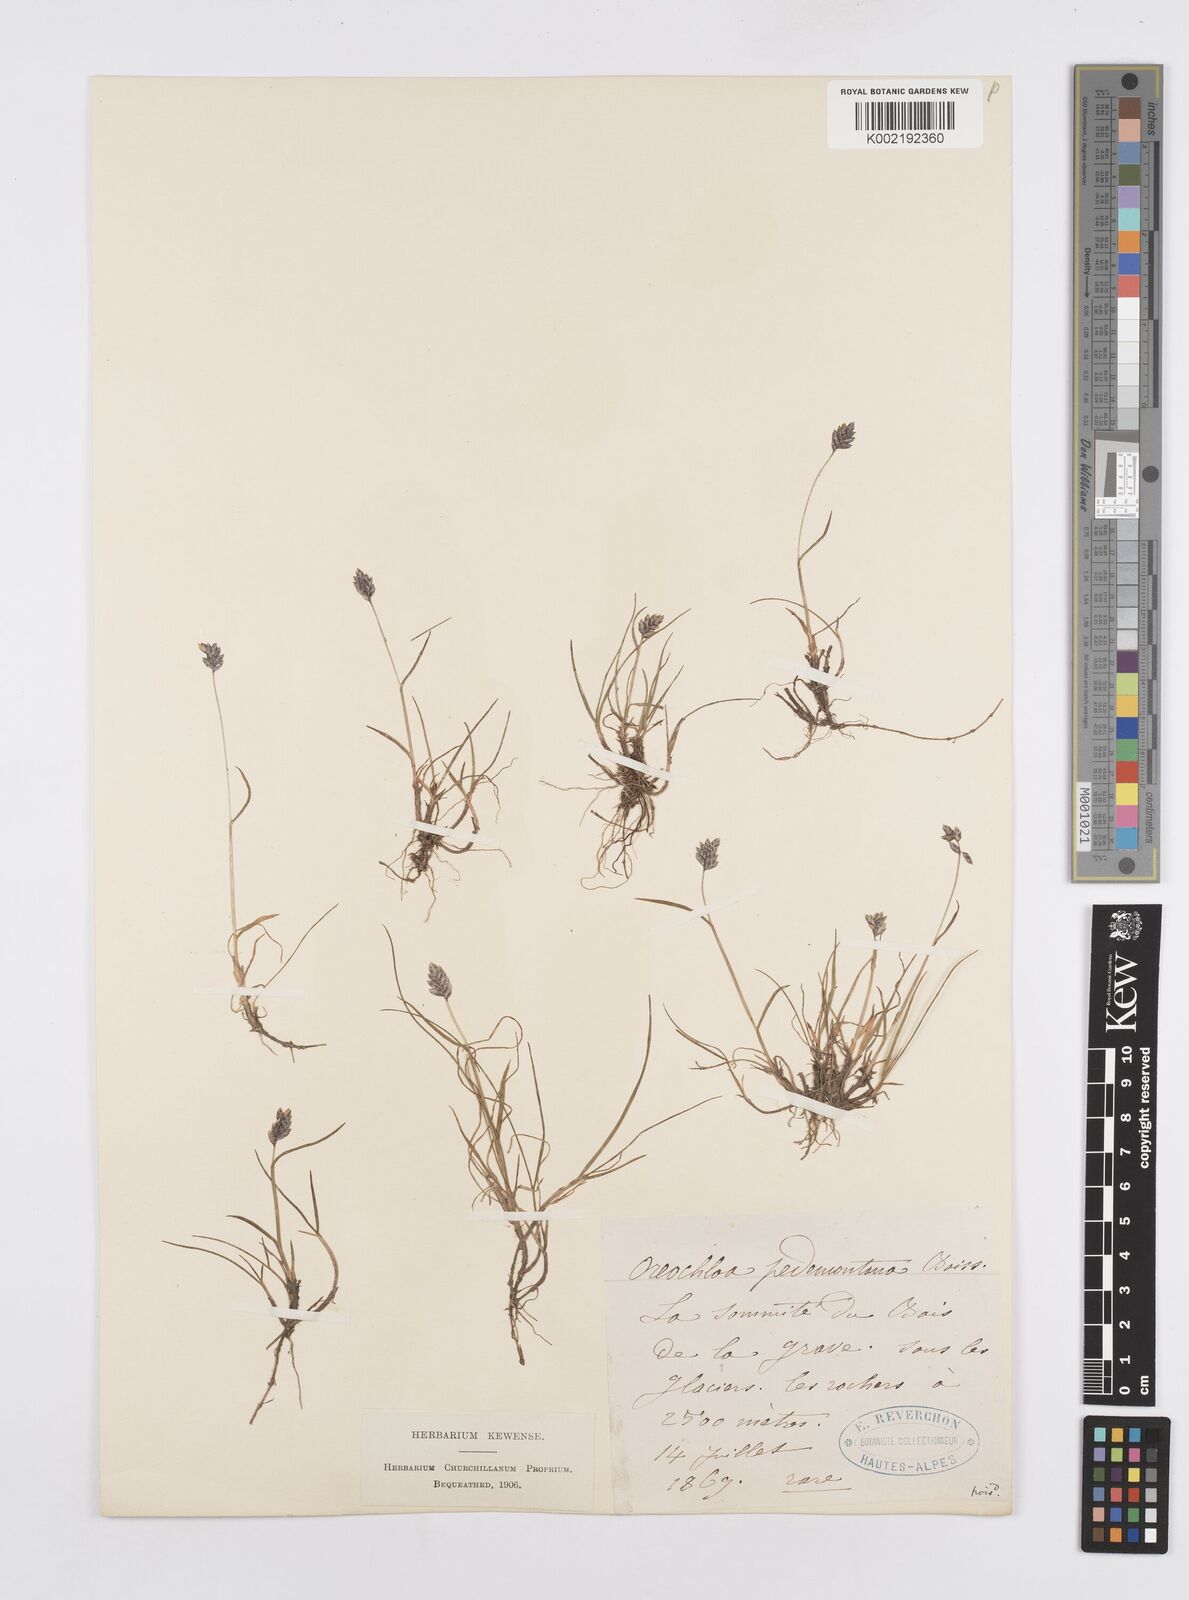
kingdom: Plantae
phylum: Tracheophyta
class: Liliopsida
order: Poales
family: Poaceae
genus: Oreochloa
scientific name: Oreochloa seslerioides
